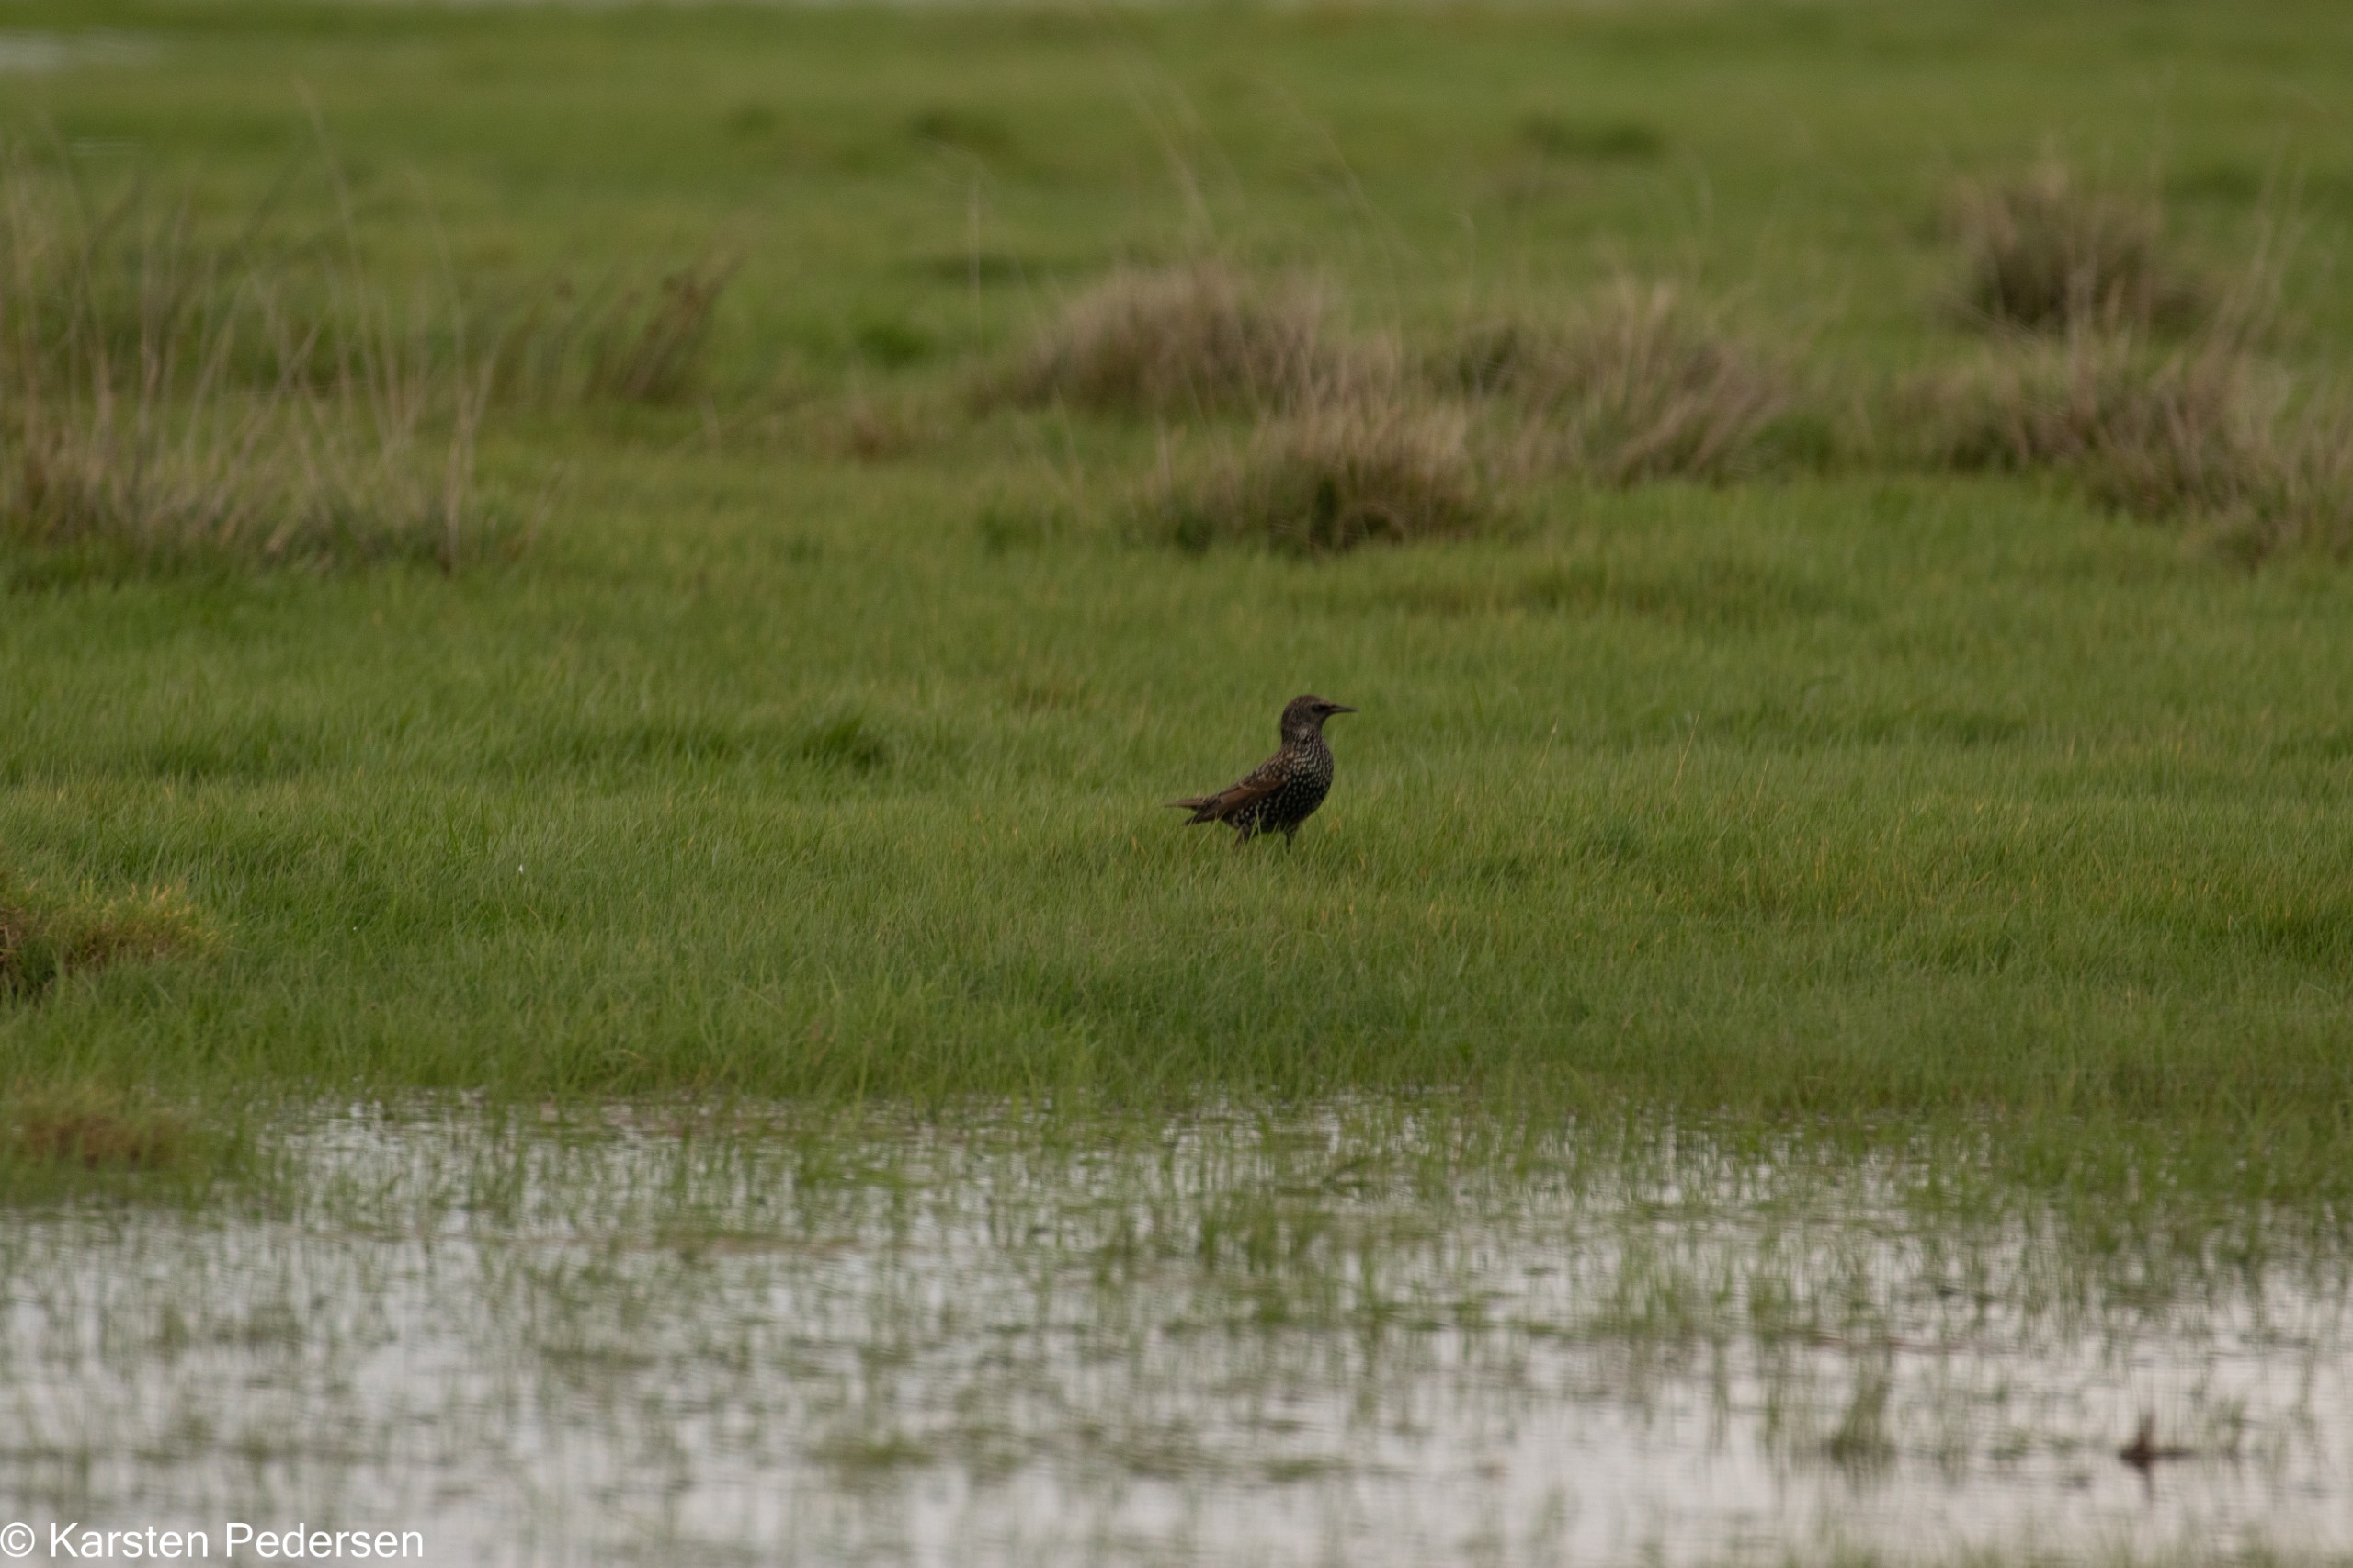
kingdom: Animalia
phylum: Chordata
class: Aves
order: Passeriformes
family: Sturnidae
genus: Sturnus
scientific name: Sturnus vulgaris
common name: Stær
